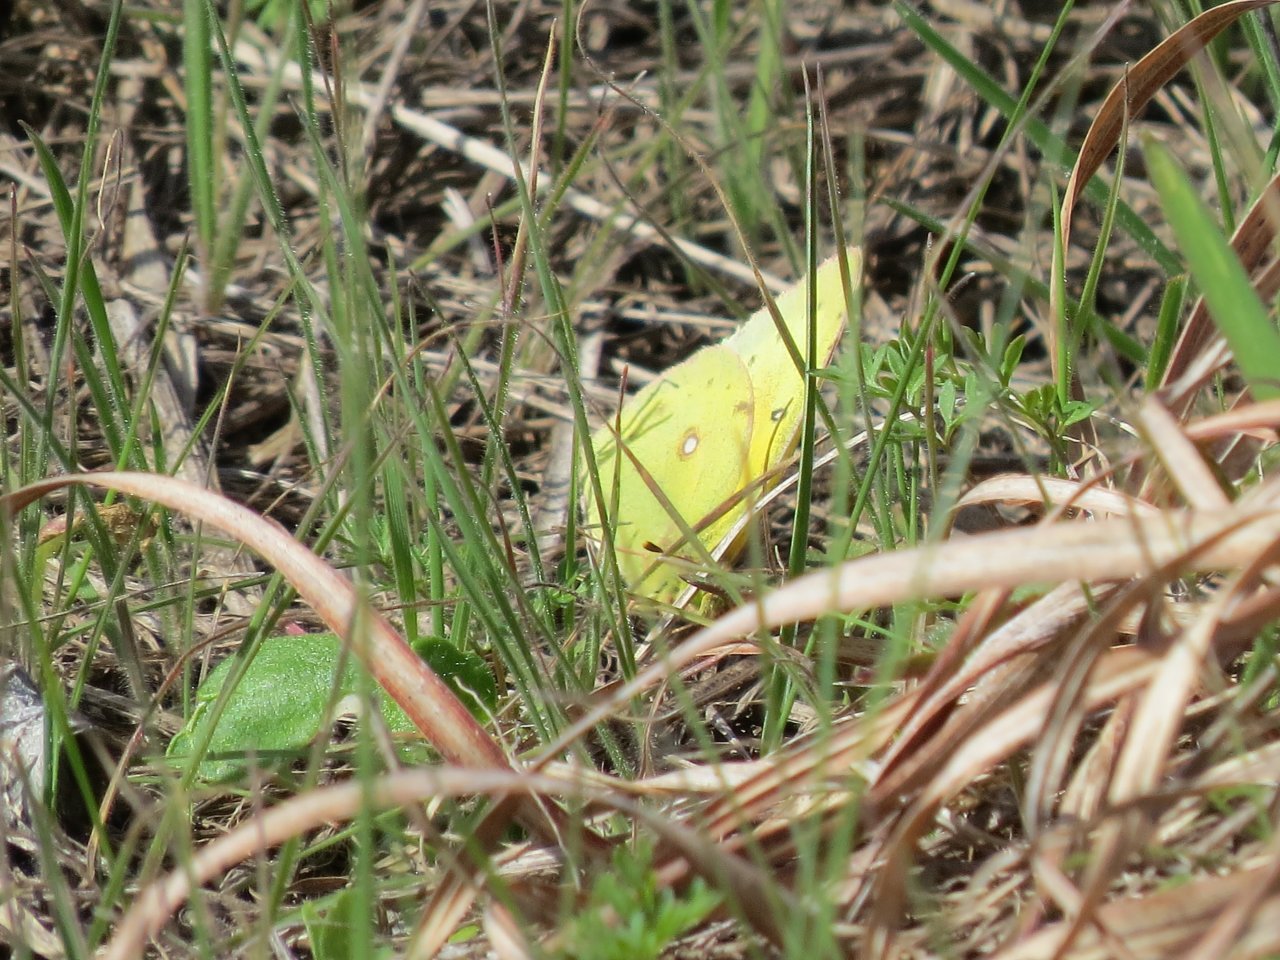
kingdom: Animalia
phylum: Arthropoda
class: Insecta
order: Lepidoptera
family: Pieridae
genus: Zerene
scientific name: Zerene cesonia
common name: Southern Dogface
